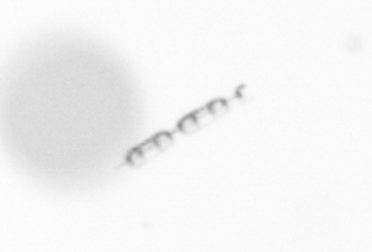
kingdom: Chromista
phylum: Ochrophyta
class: Bacillariophyceae
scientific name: Bacillariophyceae
